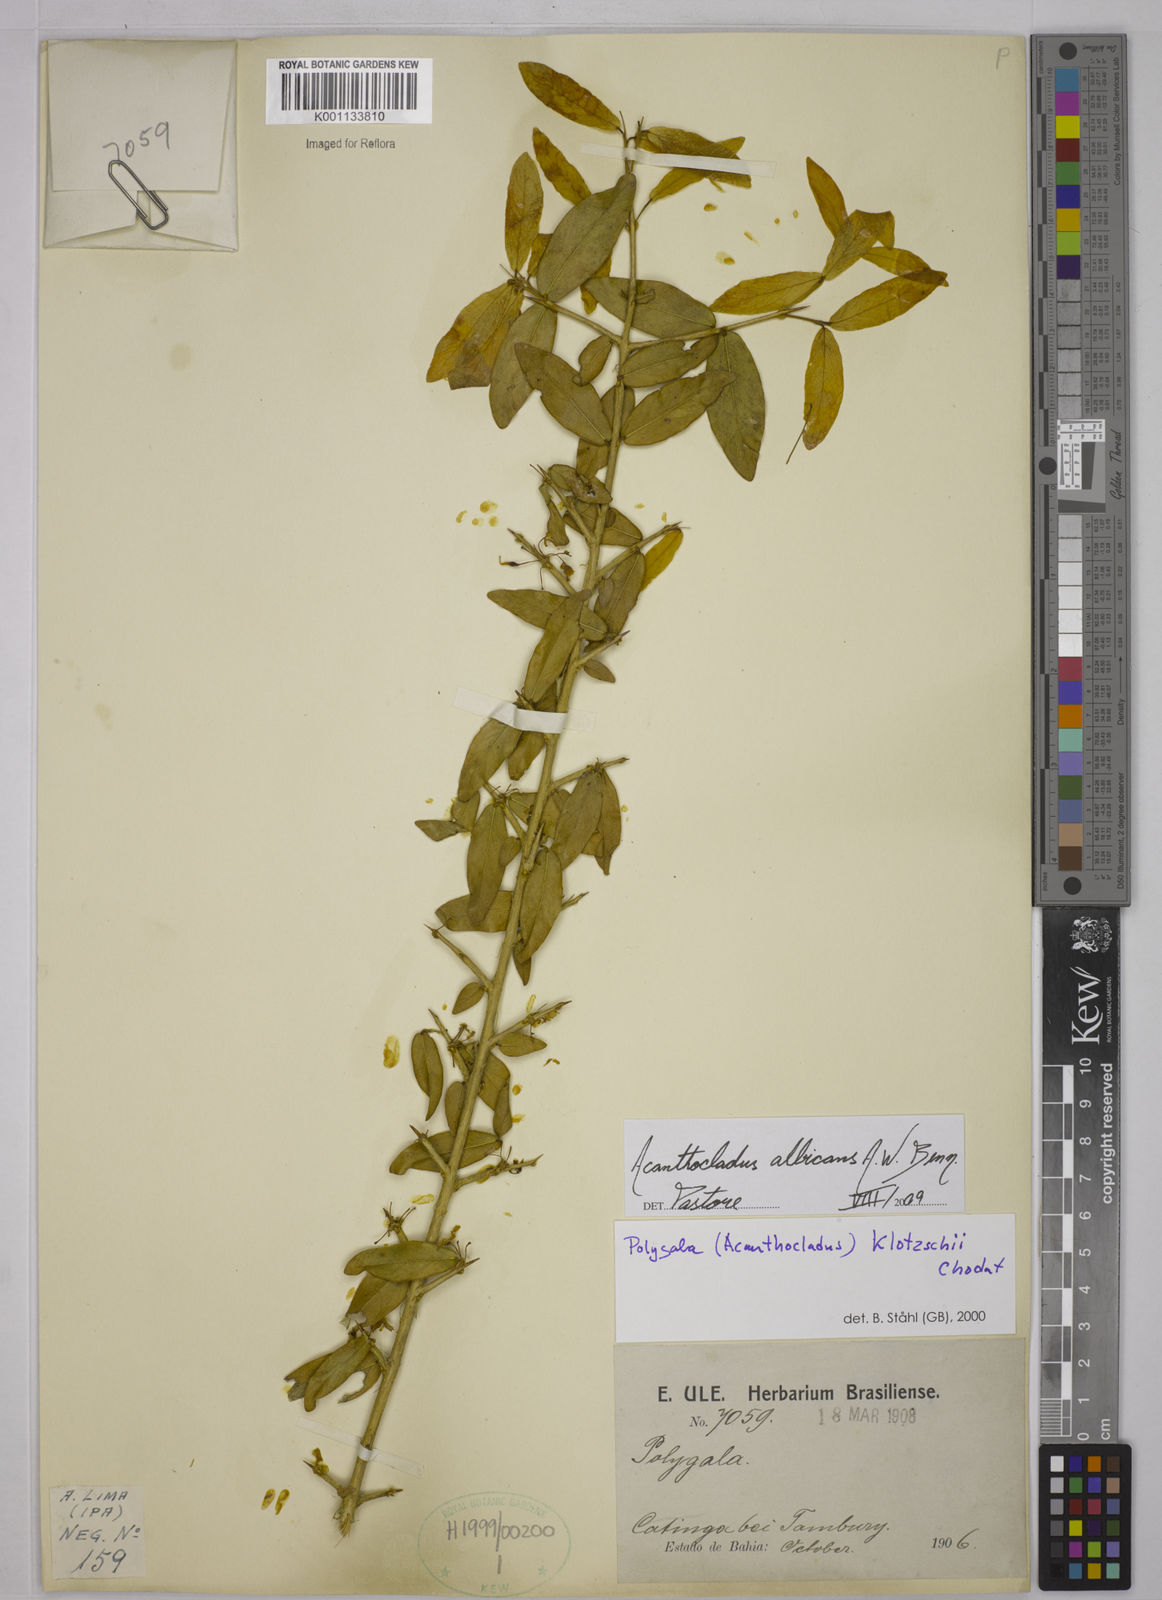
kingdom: Plantae
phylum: Tracheophyta
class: Magnoliopsida
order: Fabales
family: Polygalaceae
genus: Acanthocladus
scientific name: Acanthocladus dichromus
